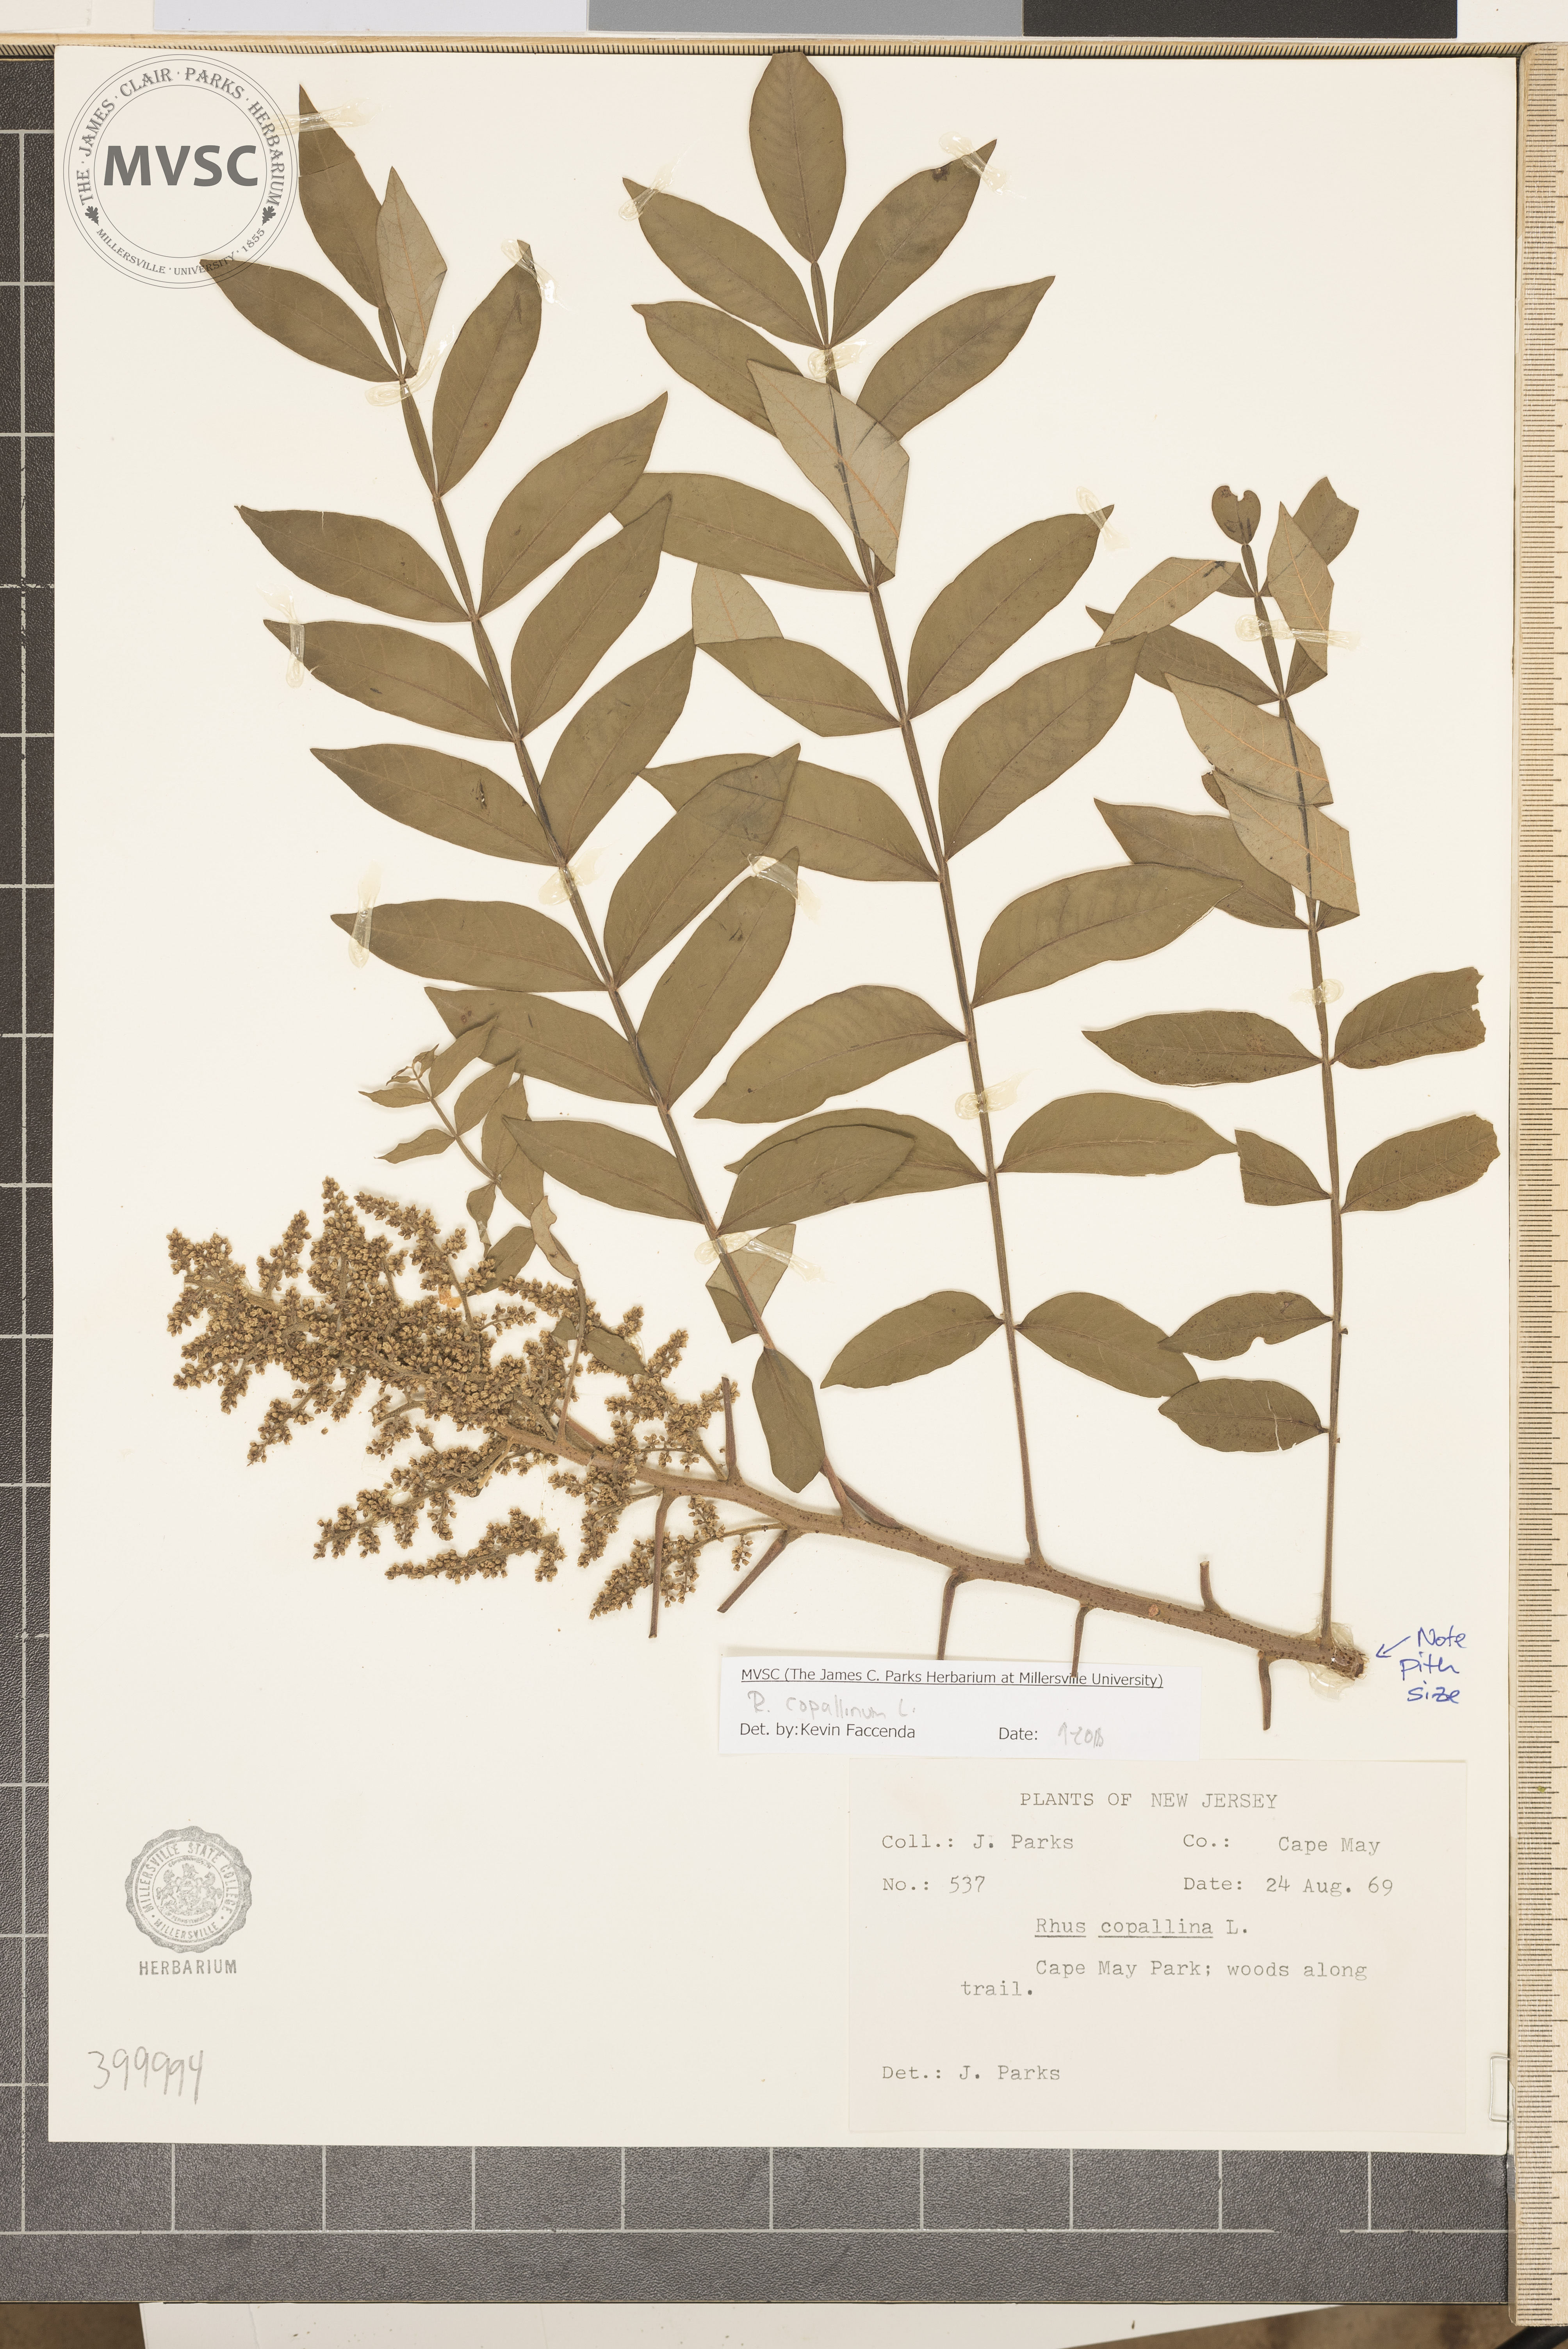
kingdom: Plantae
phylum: Tracheophyta
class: Magnoliopsida
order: Sapindales
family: Anacardiaceae
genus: Rhus
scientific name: Rhus copallina
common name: sumac
